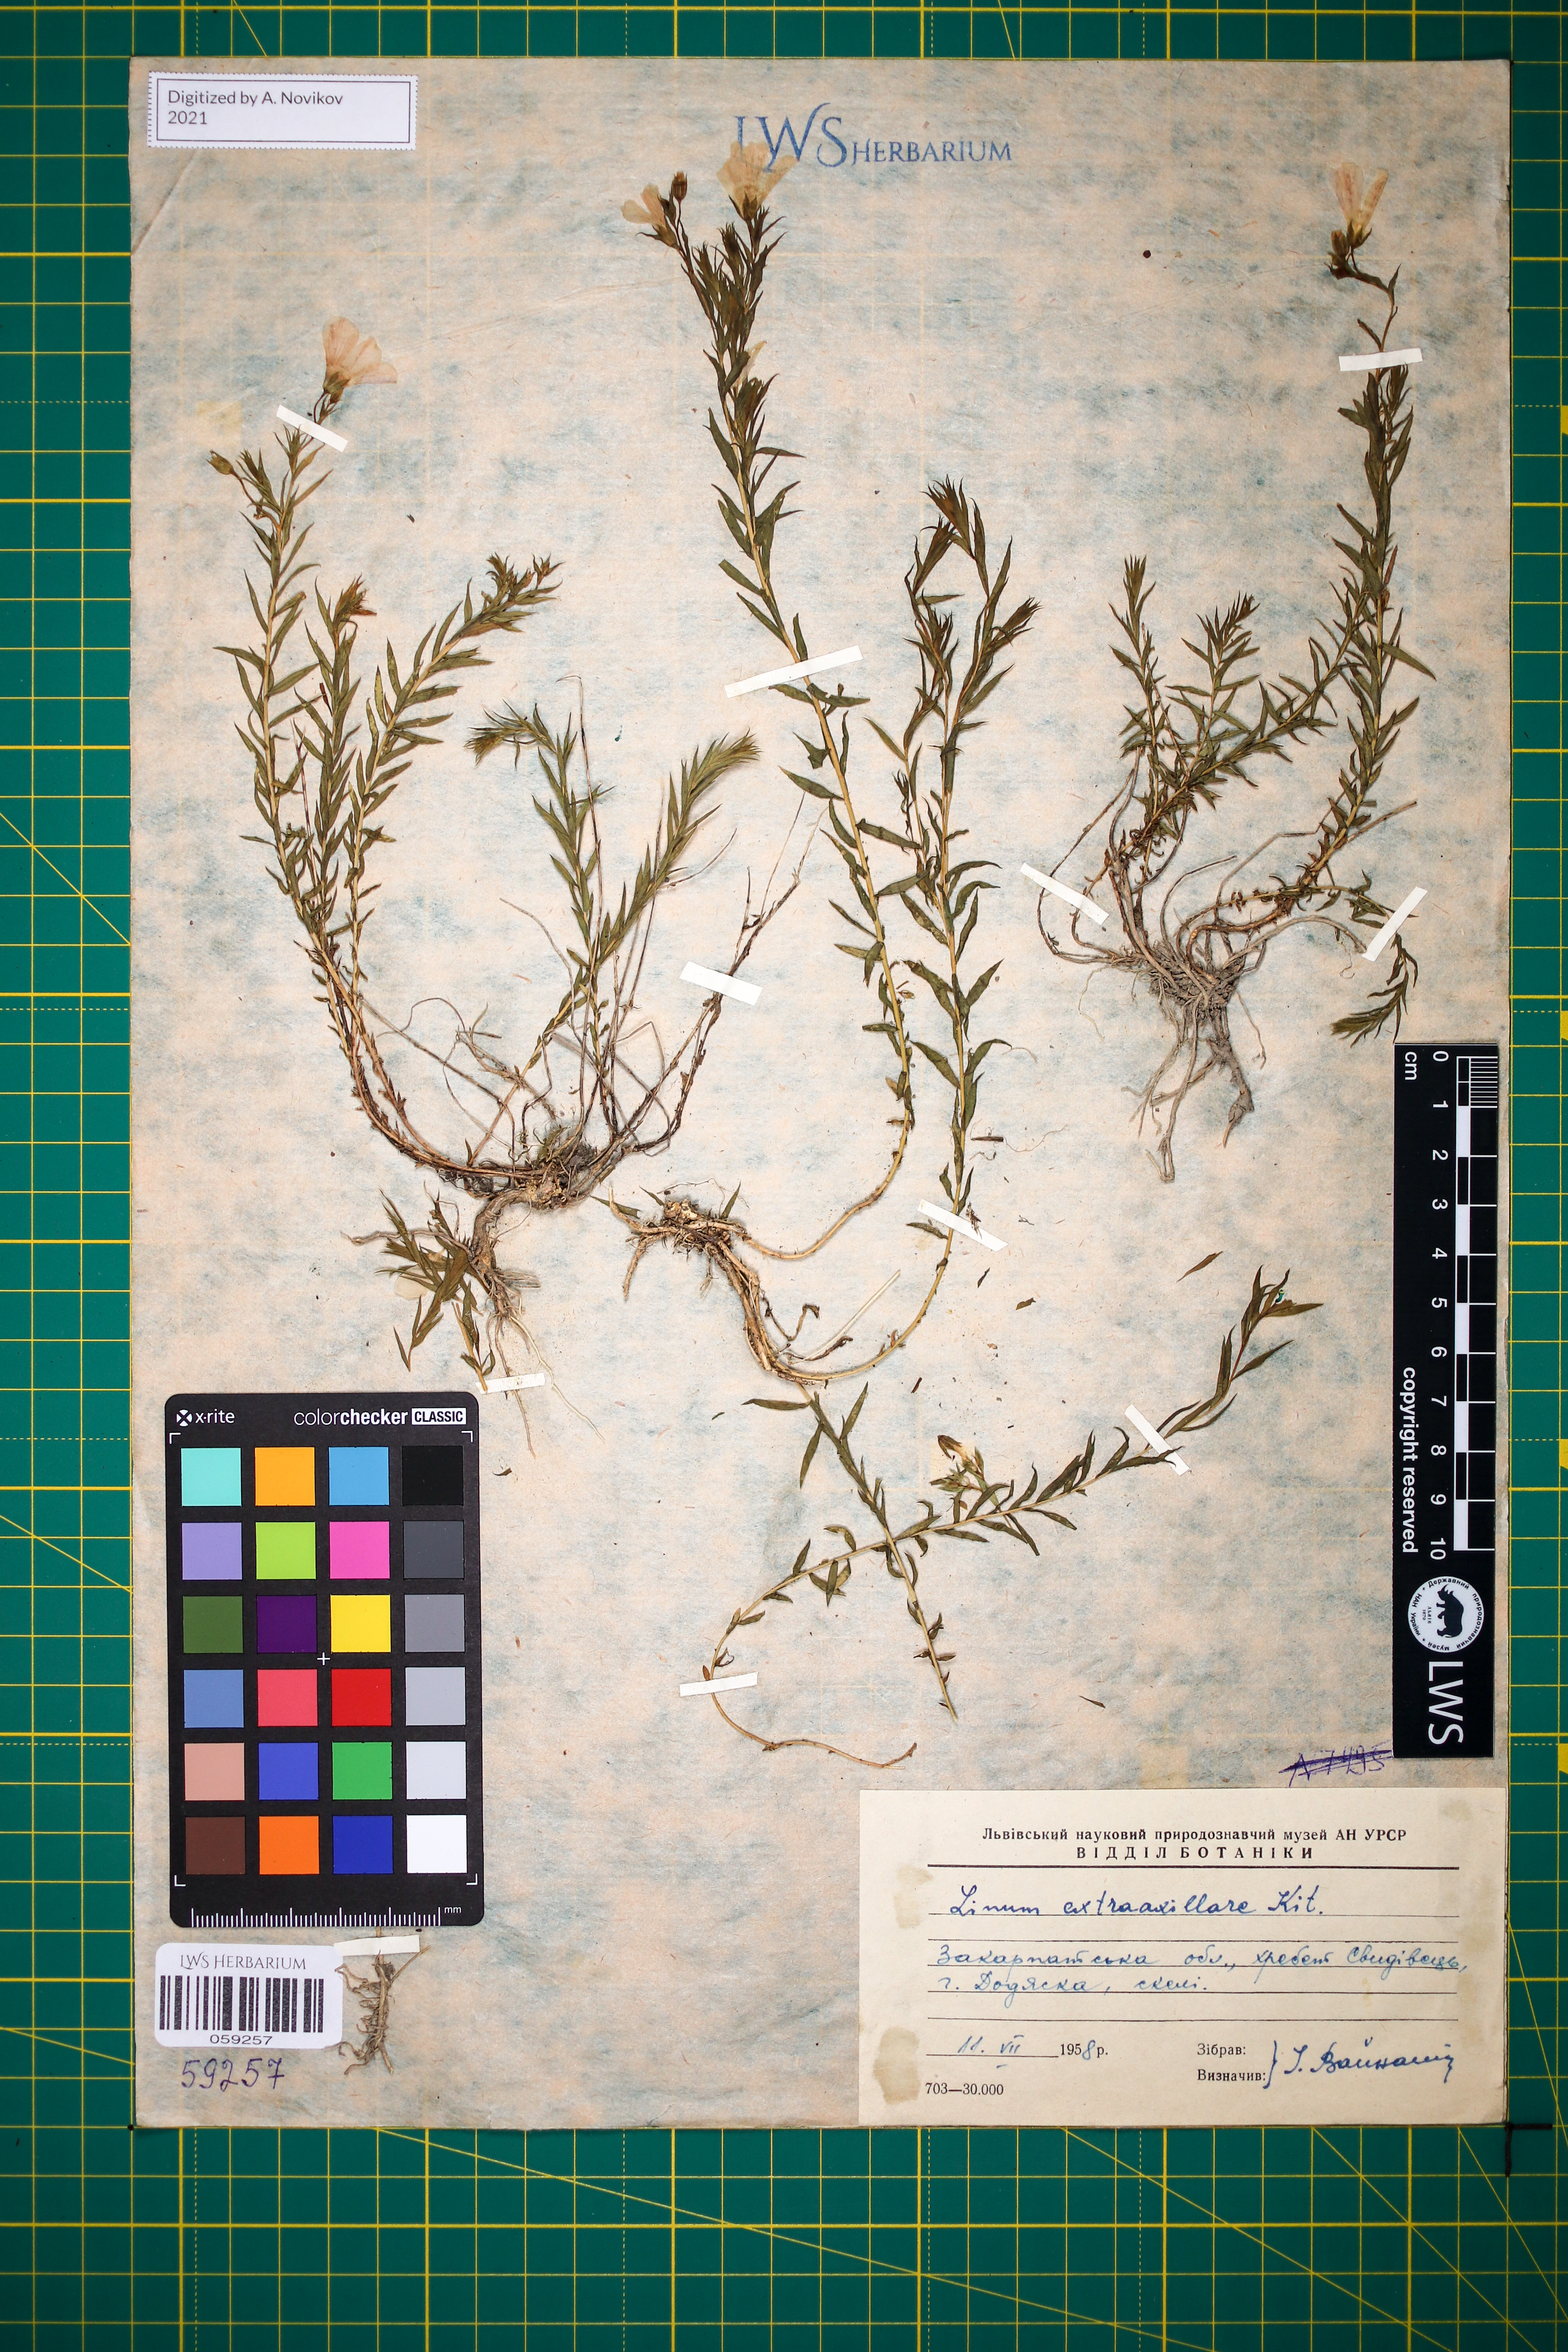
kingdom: Plantae
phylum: Tracheophyta
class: Magnoliopsida
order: Malpighiales
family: Linaceae
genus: Linum
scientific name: Linum perenne
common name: Blue flax
